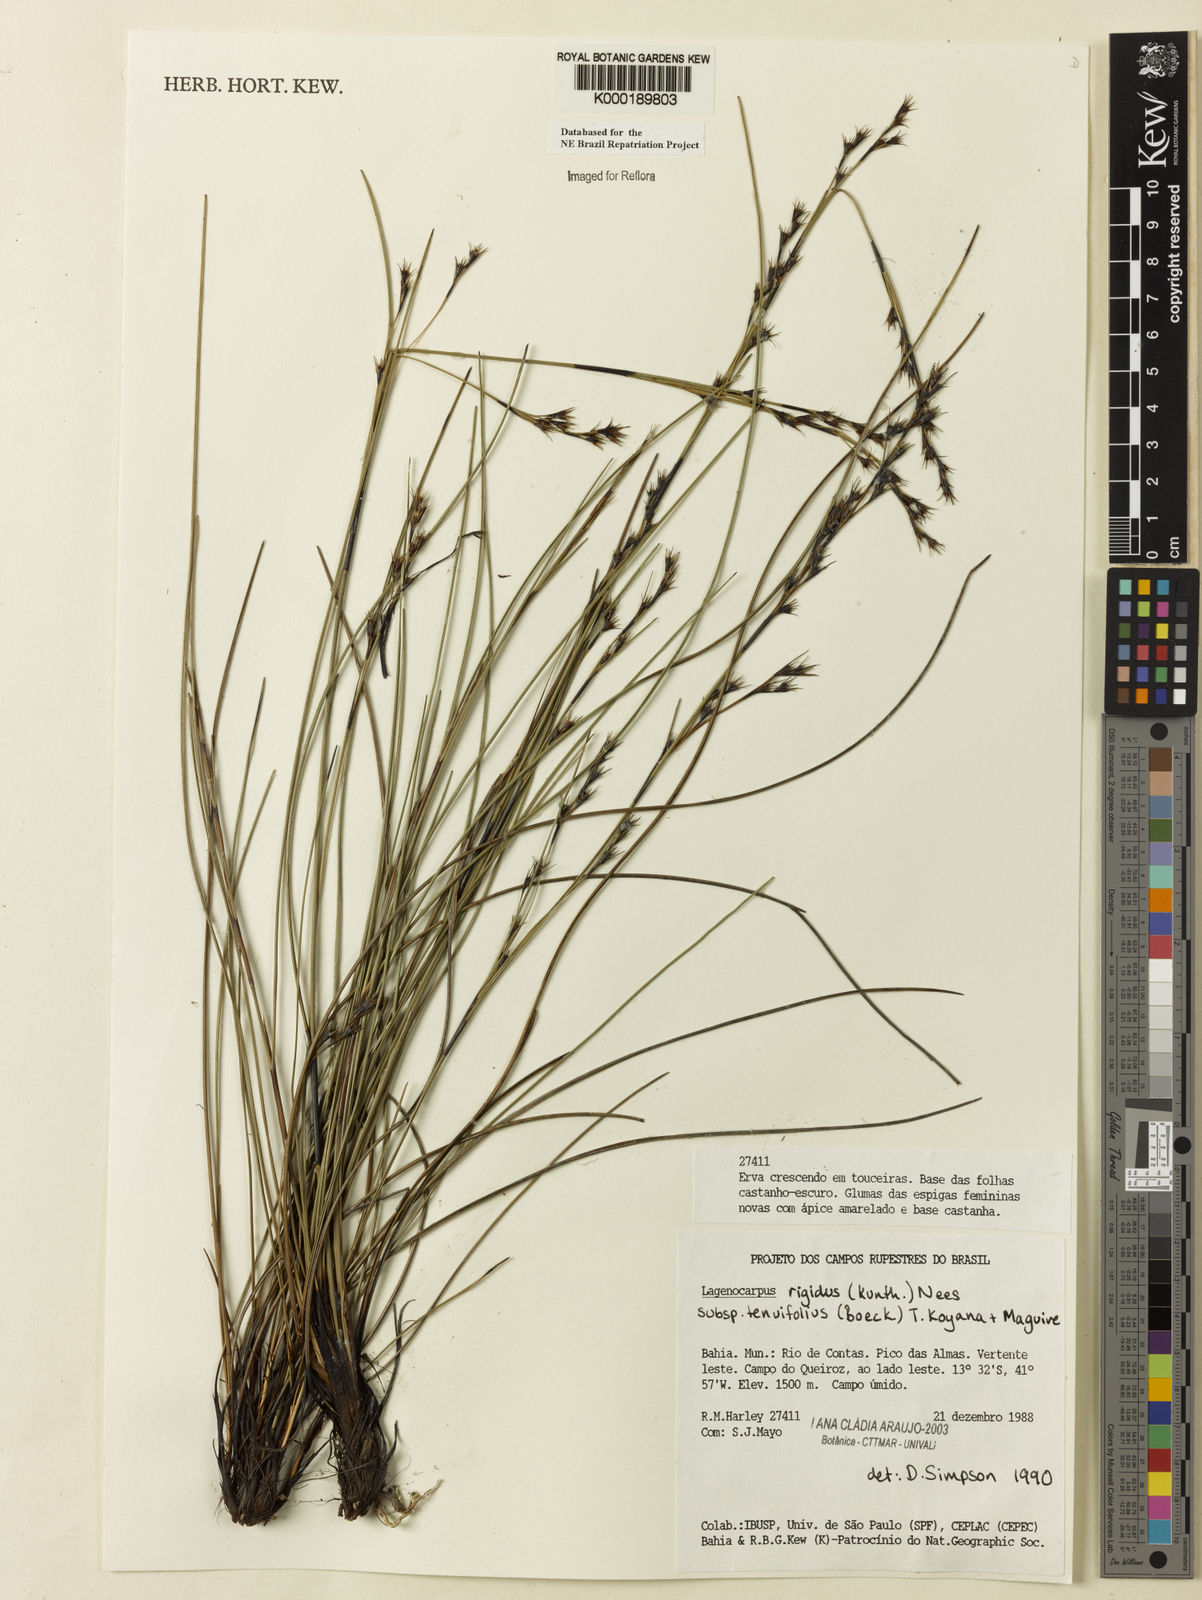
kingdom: Plantae
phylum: Tracheophyta
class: Liliopsida
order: Poales
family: Cyperaceae
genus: Lagenocarpus
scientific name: Lagenocarpus rigidus
